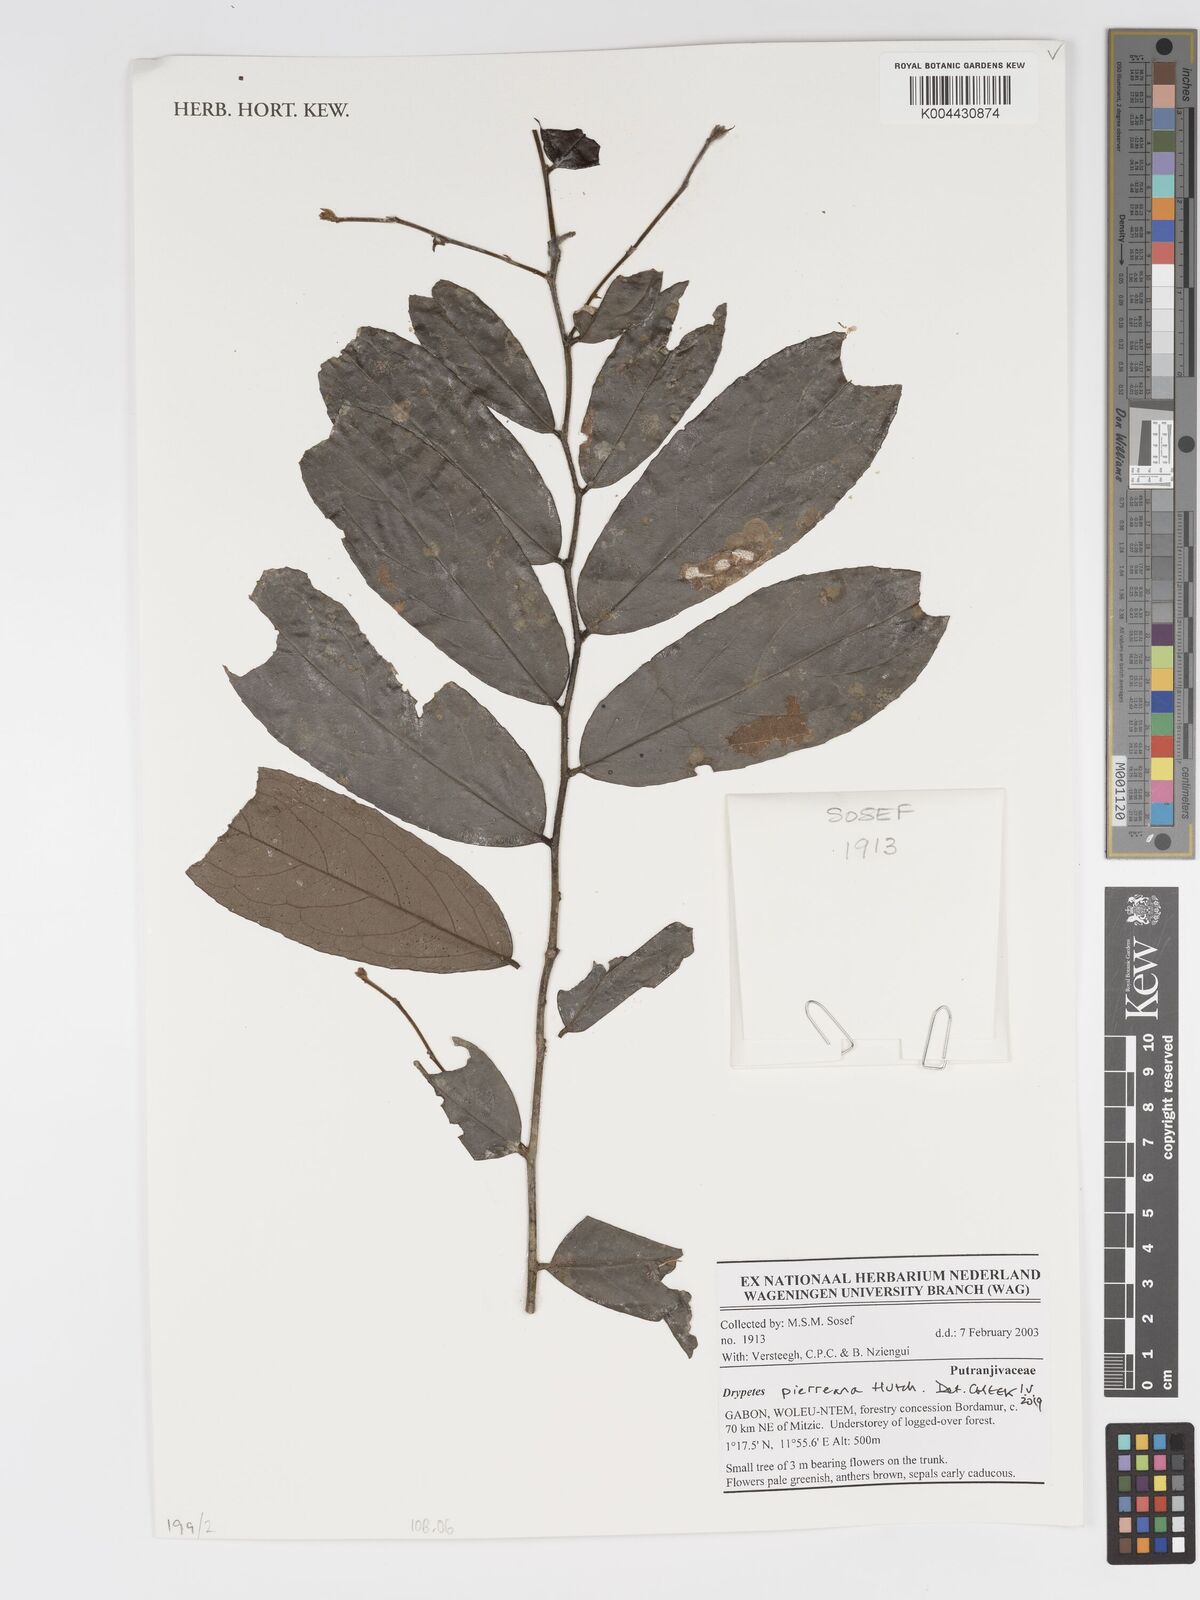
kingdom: Plantae
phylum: Tracheophyta
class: Magnoliopsida
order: Malpighiales
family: Putranjivaceae
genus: Drypetes
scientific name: Drypetes
